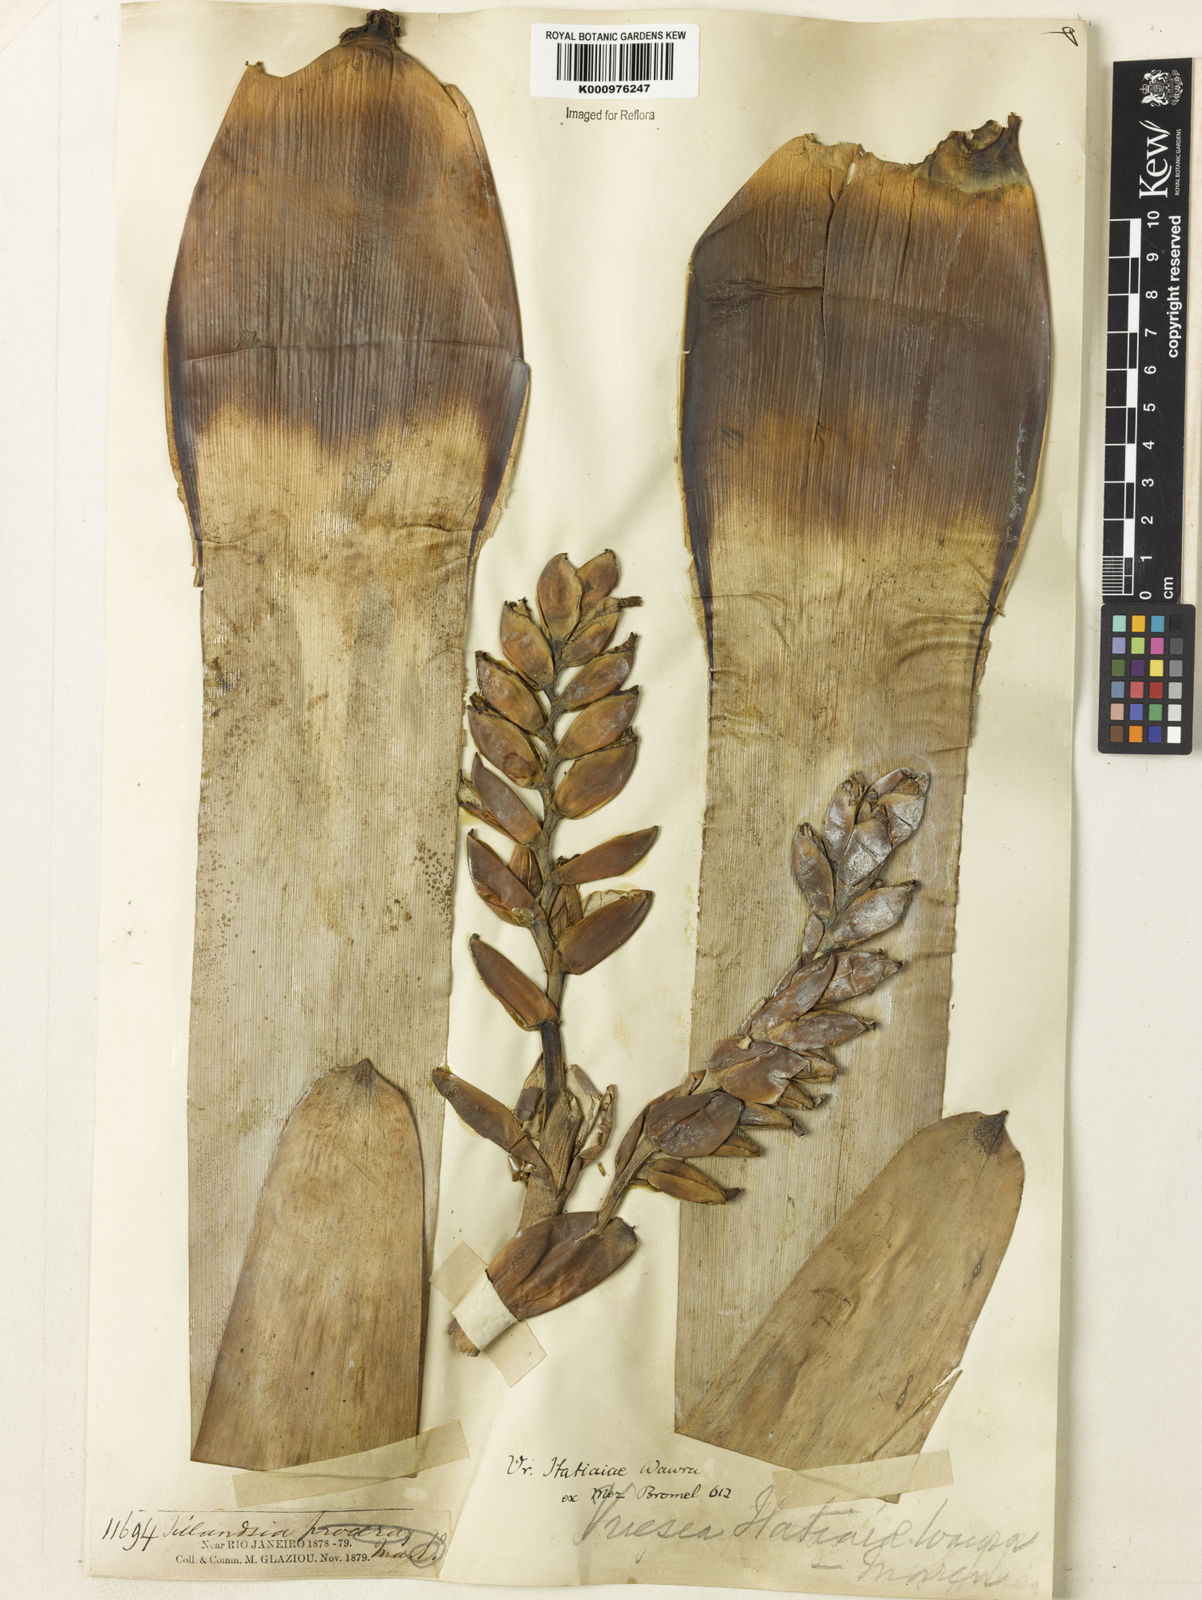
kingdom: Plantae
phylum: Tracheophyta
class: Liliopsida
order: Poales
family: Bromeliaceae
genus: Vriesea
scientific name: Vriesea itatiaiae
